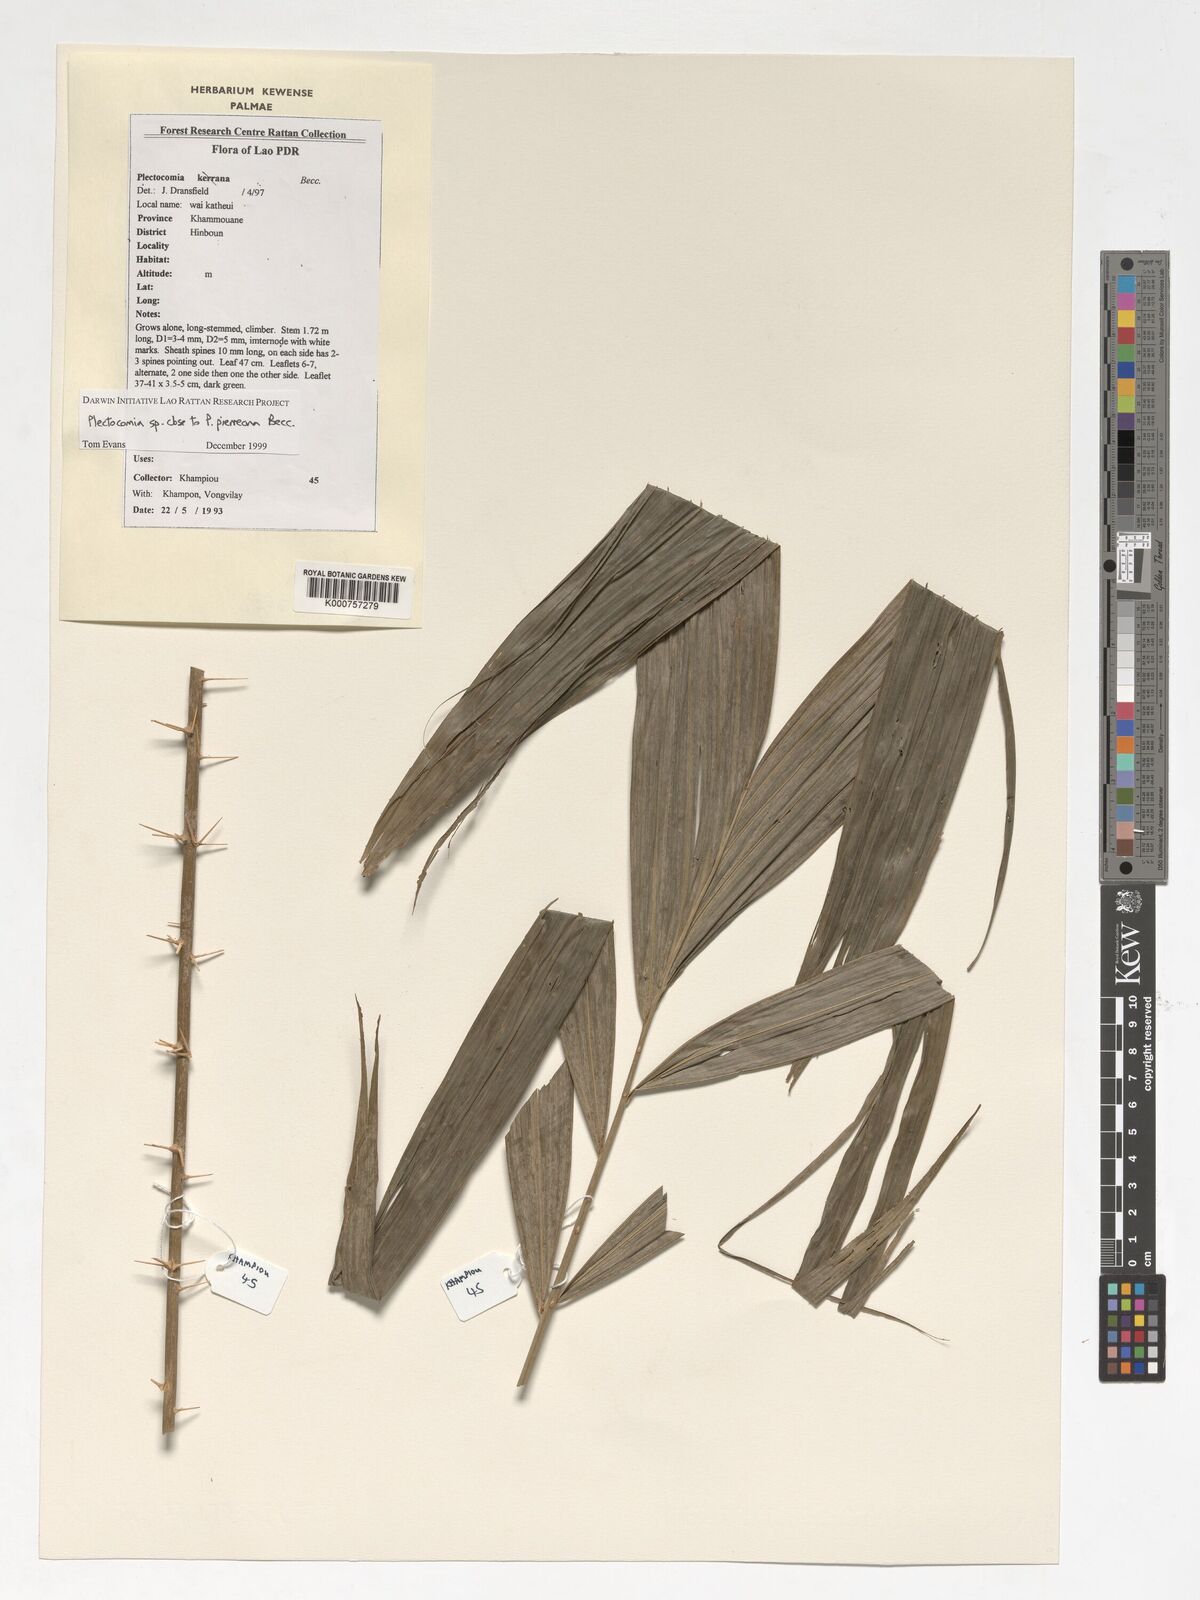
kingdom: Plantae
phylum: Tracheophyta
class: Liliopsida
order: Arecales
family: Arecaceae
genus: Plectocomia
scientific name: Plectocomia pierreana
